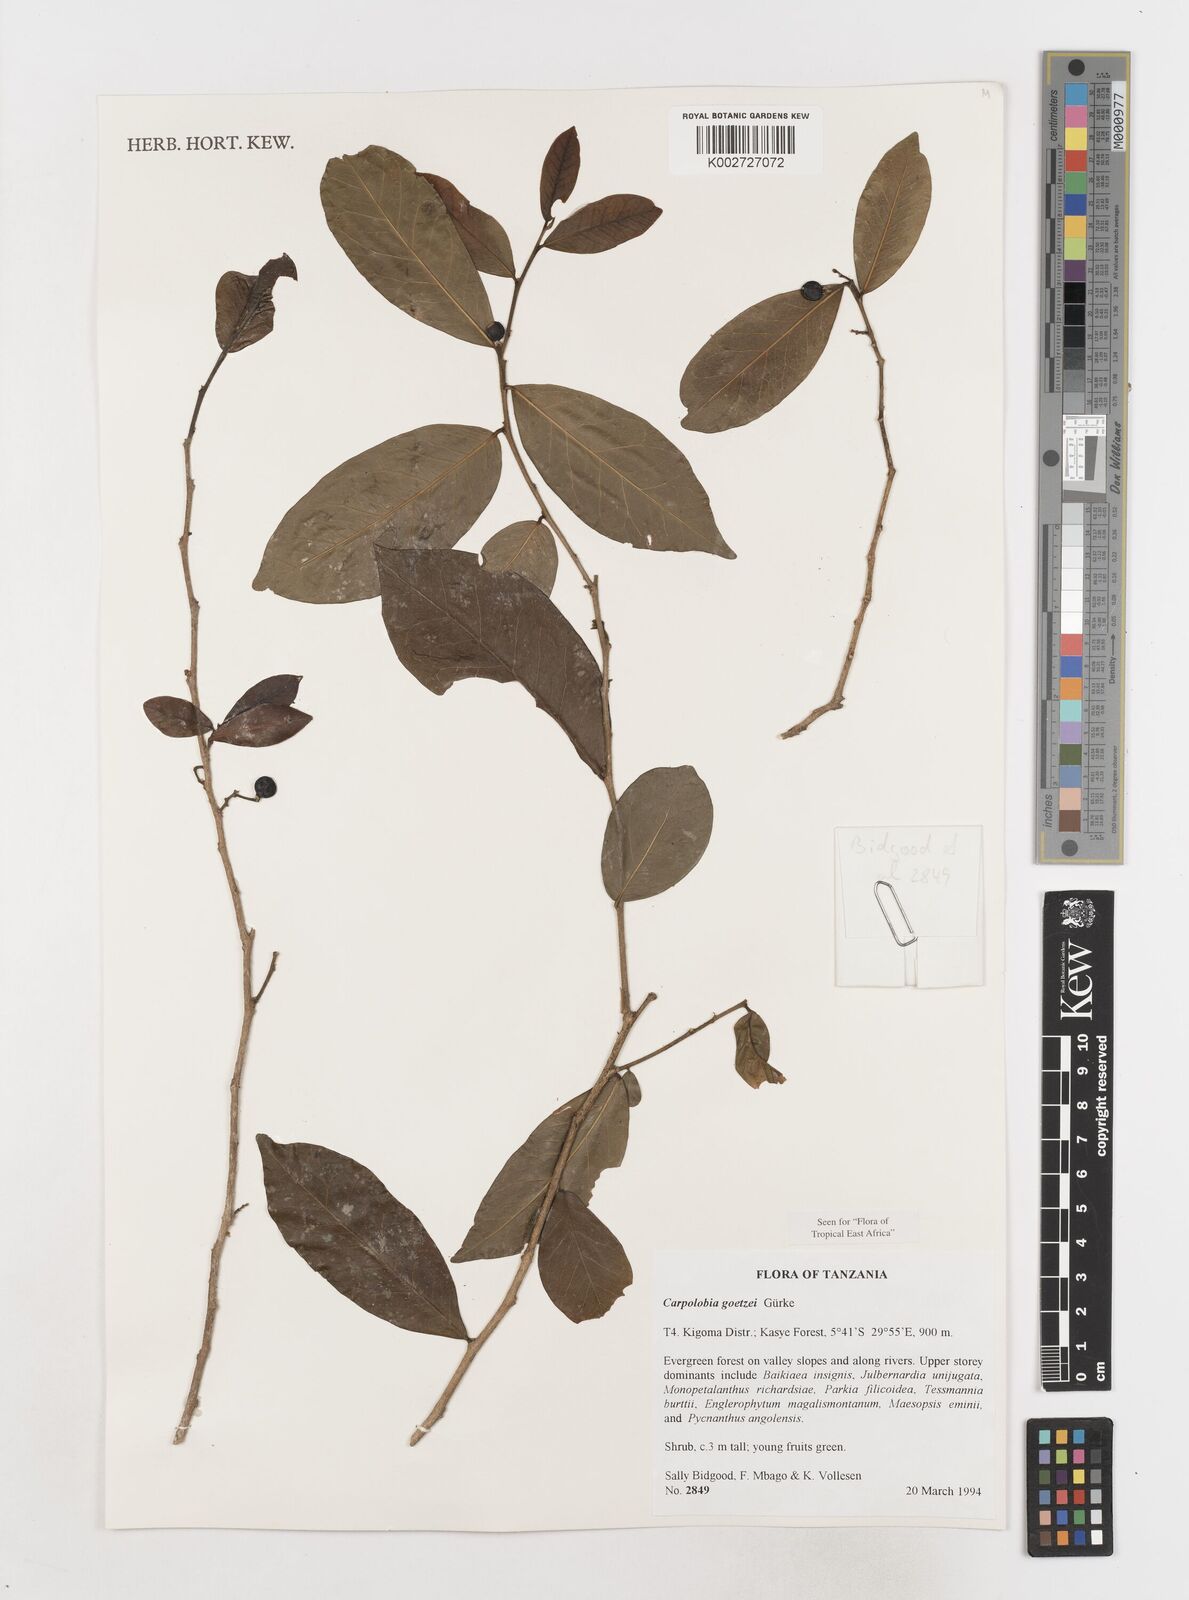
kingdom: Plantae
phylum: Tracheophyta
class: Magnoliopsida
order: Fabales
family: Polygalaceae
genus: Carpolobia
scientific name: Carpolobia goetzei
